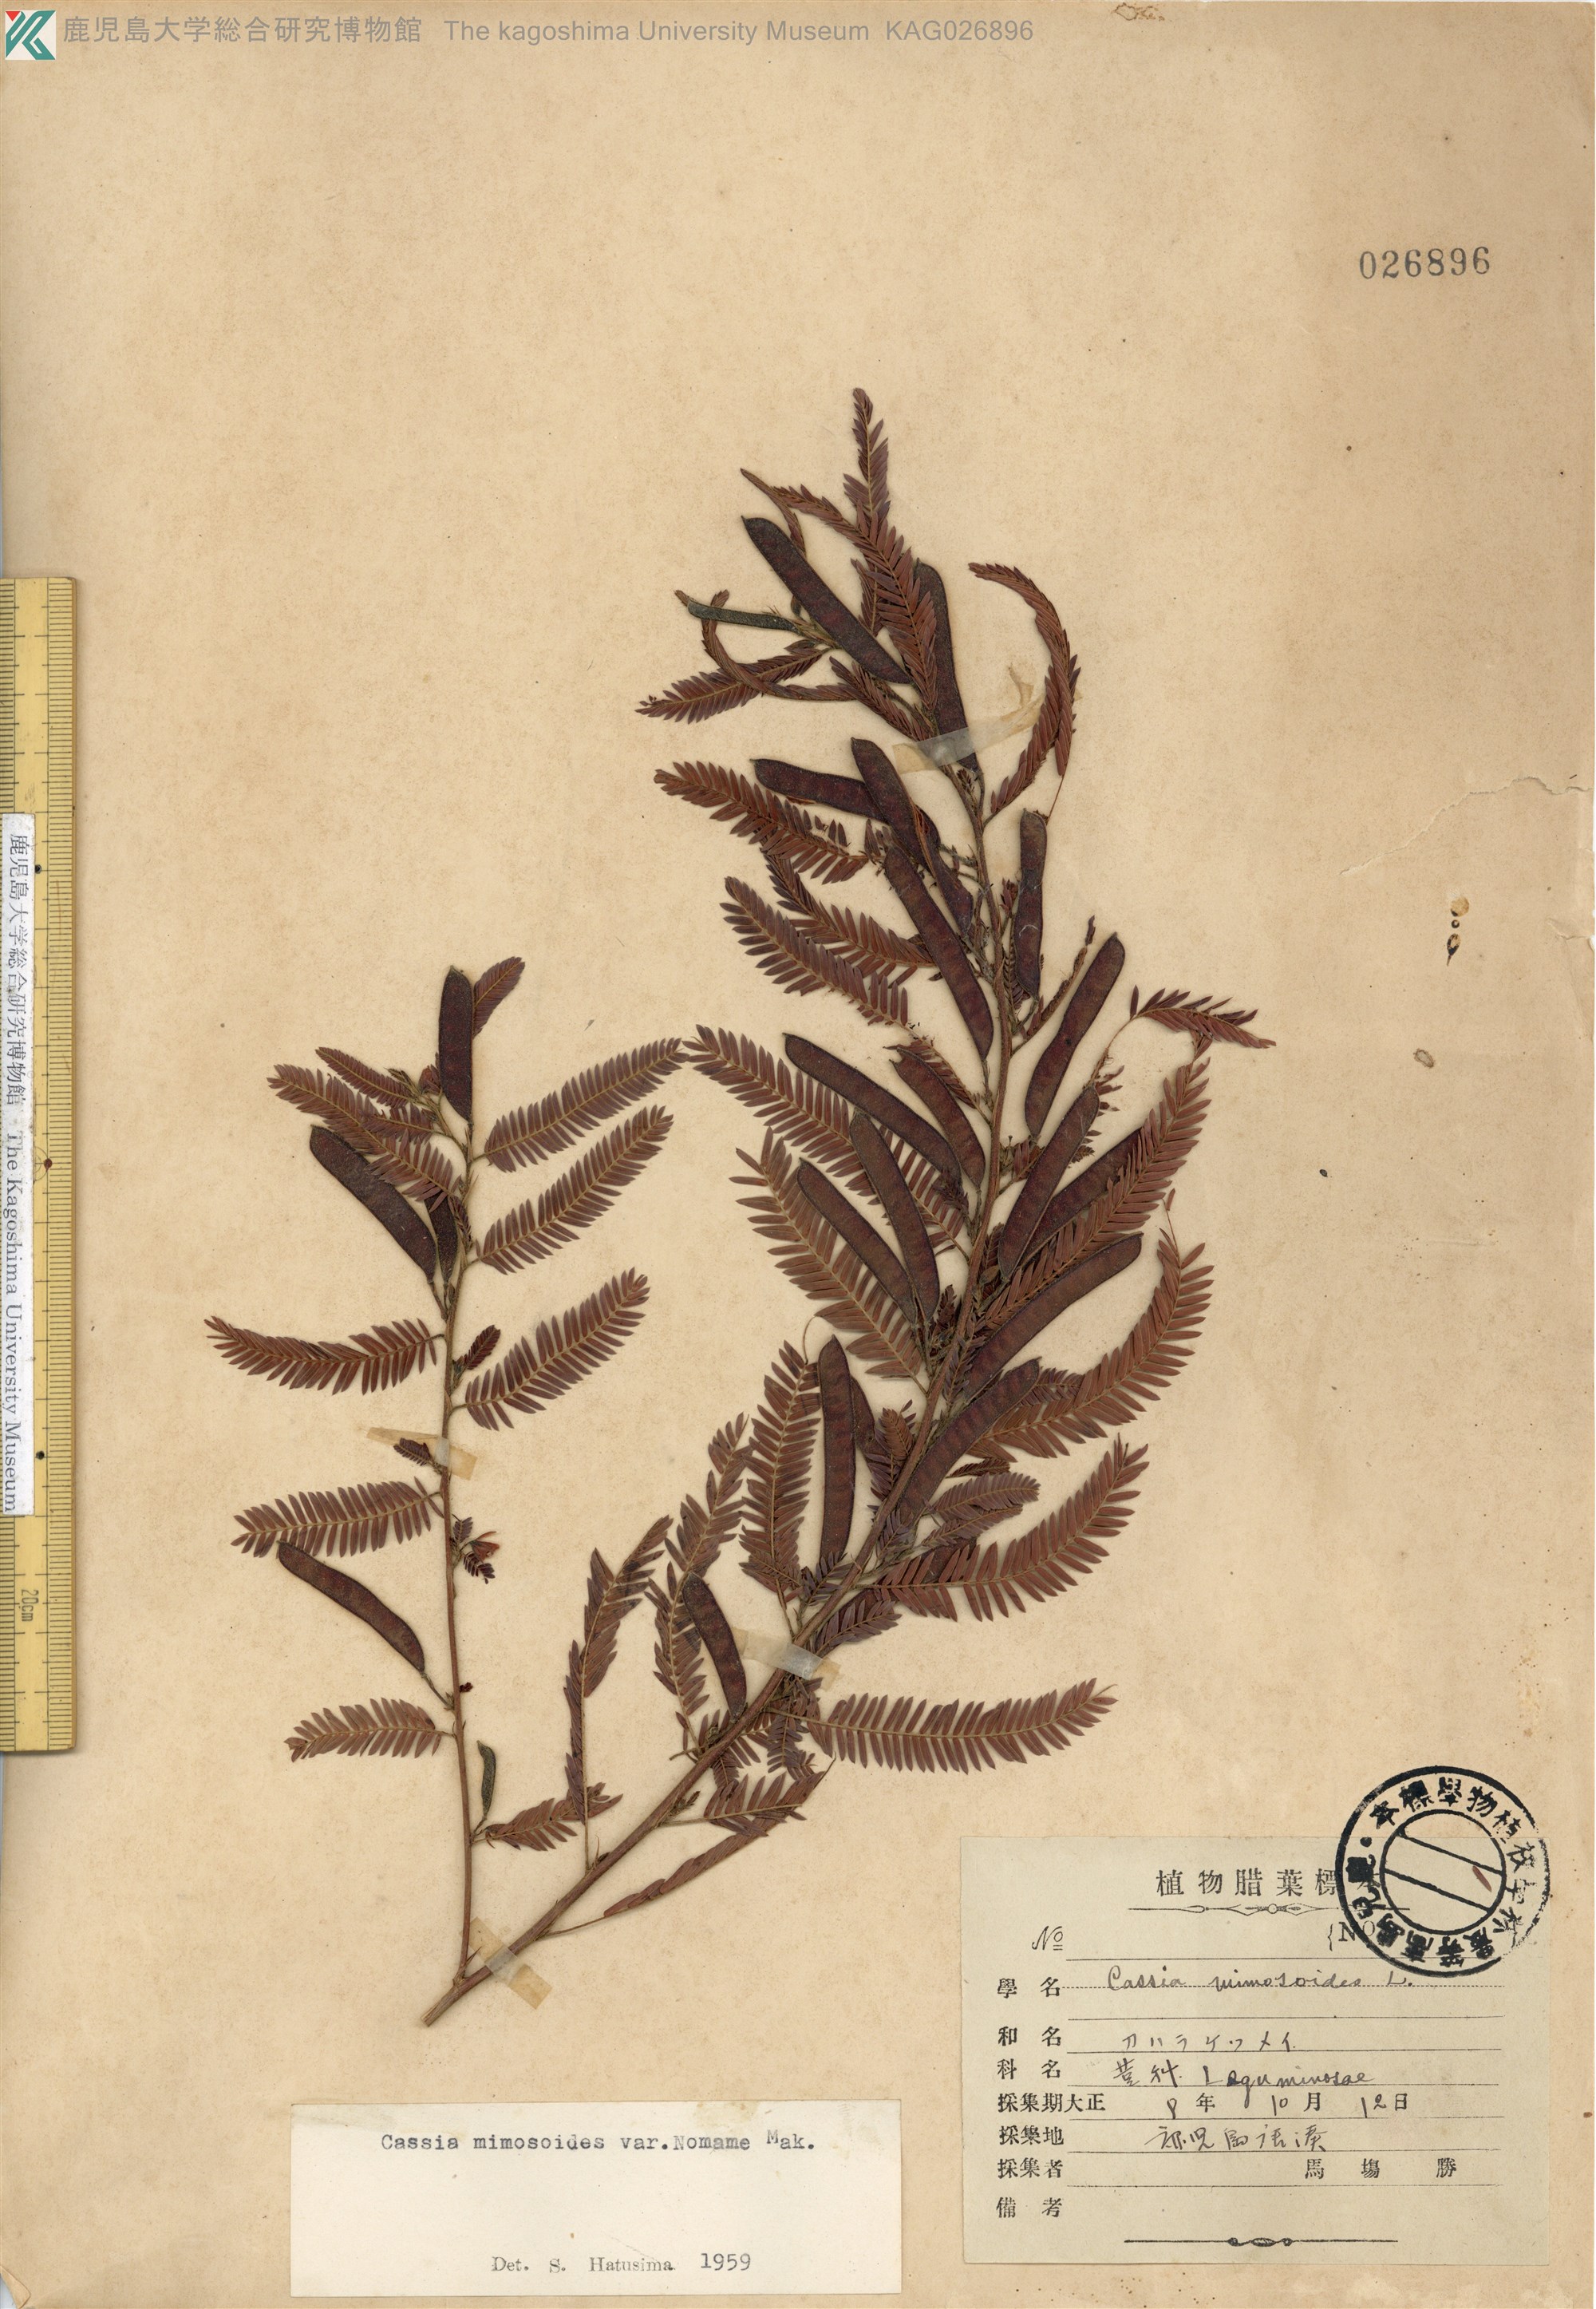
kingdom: Plantae
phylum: Tracheophyta
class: Magnoliopsida
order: Fabales
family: Fabaceae
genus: Chamaecrista
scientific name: Chamaecrista nomame
